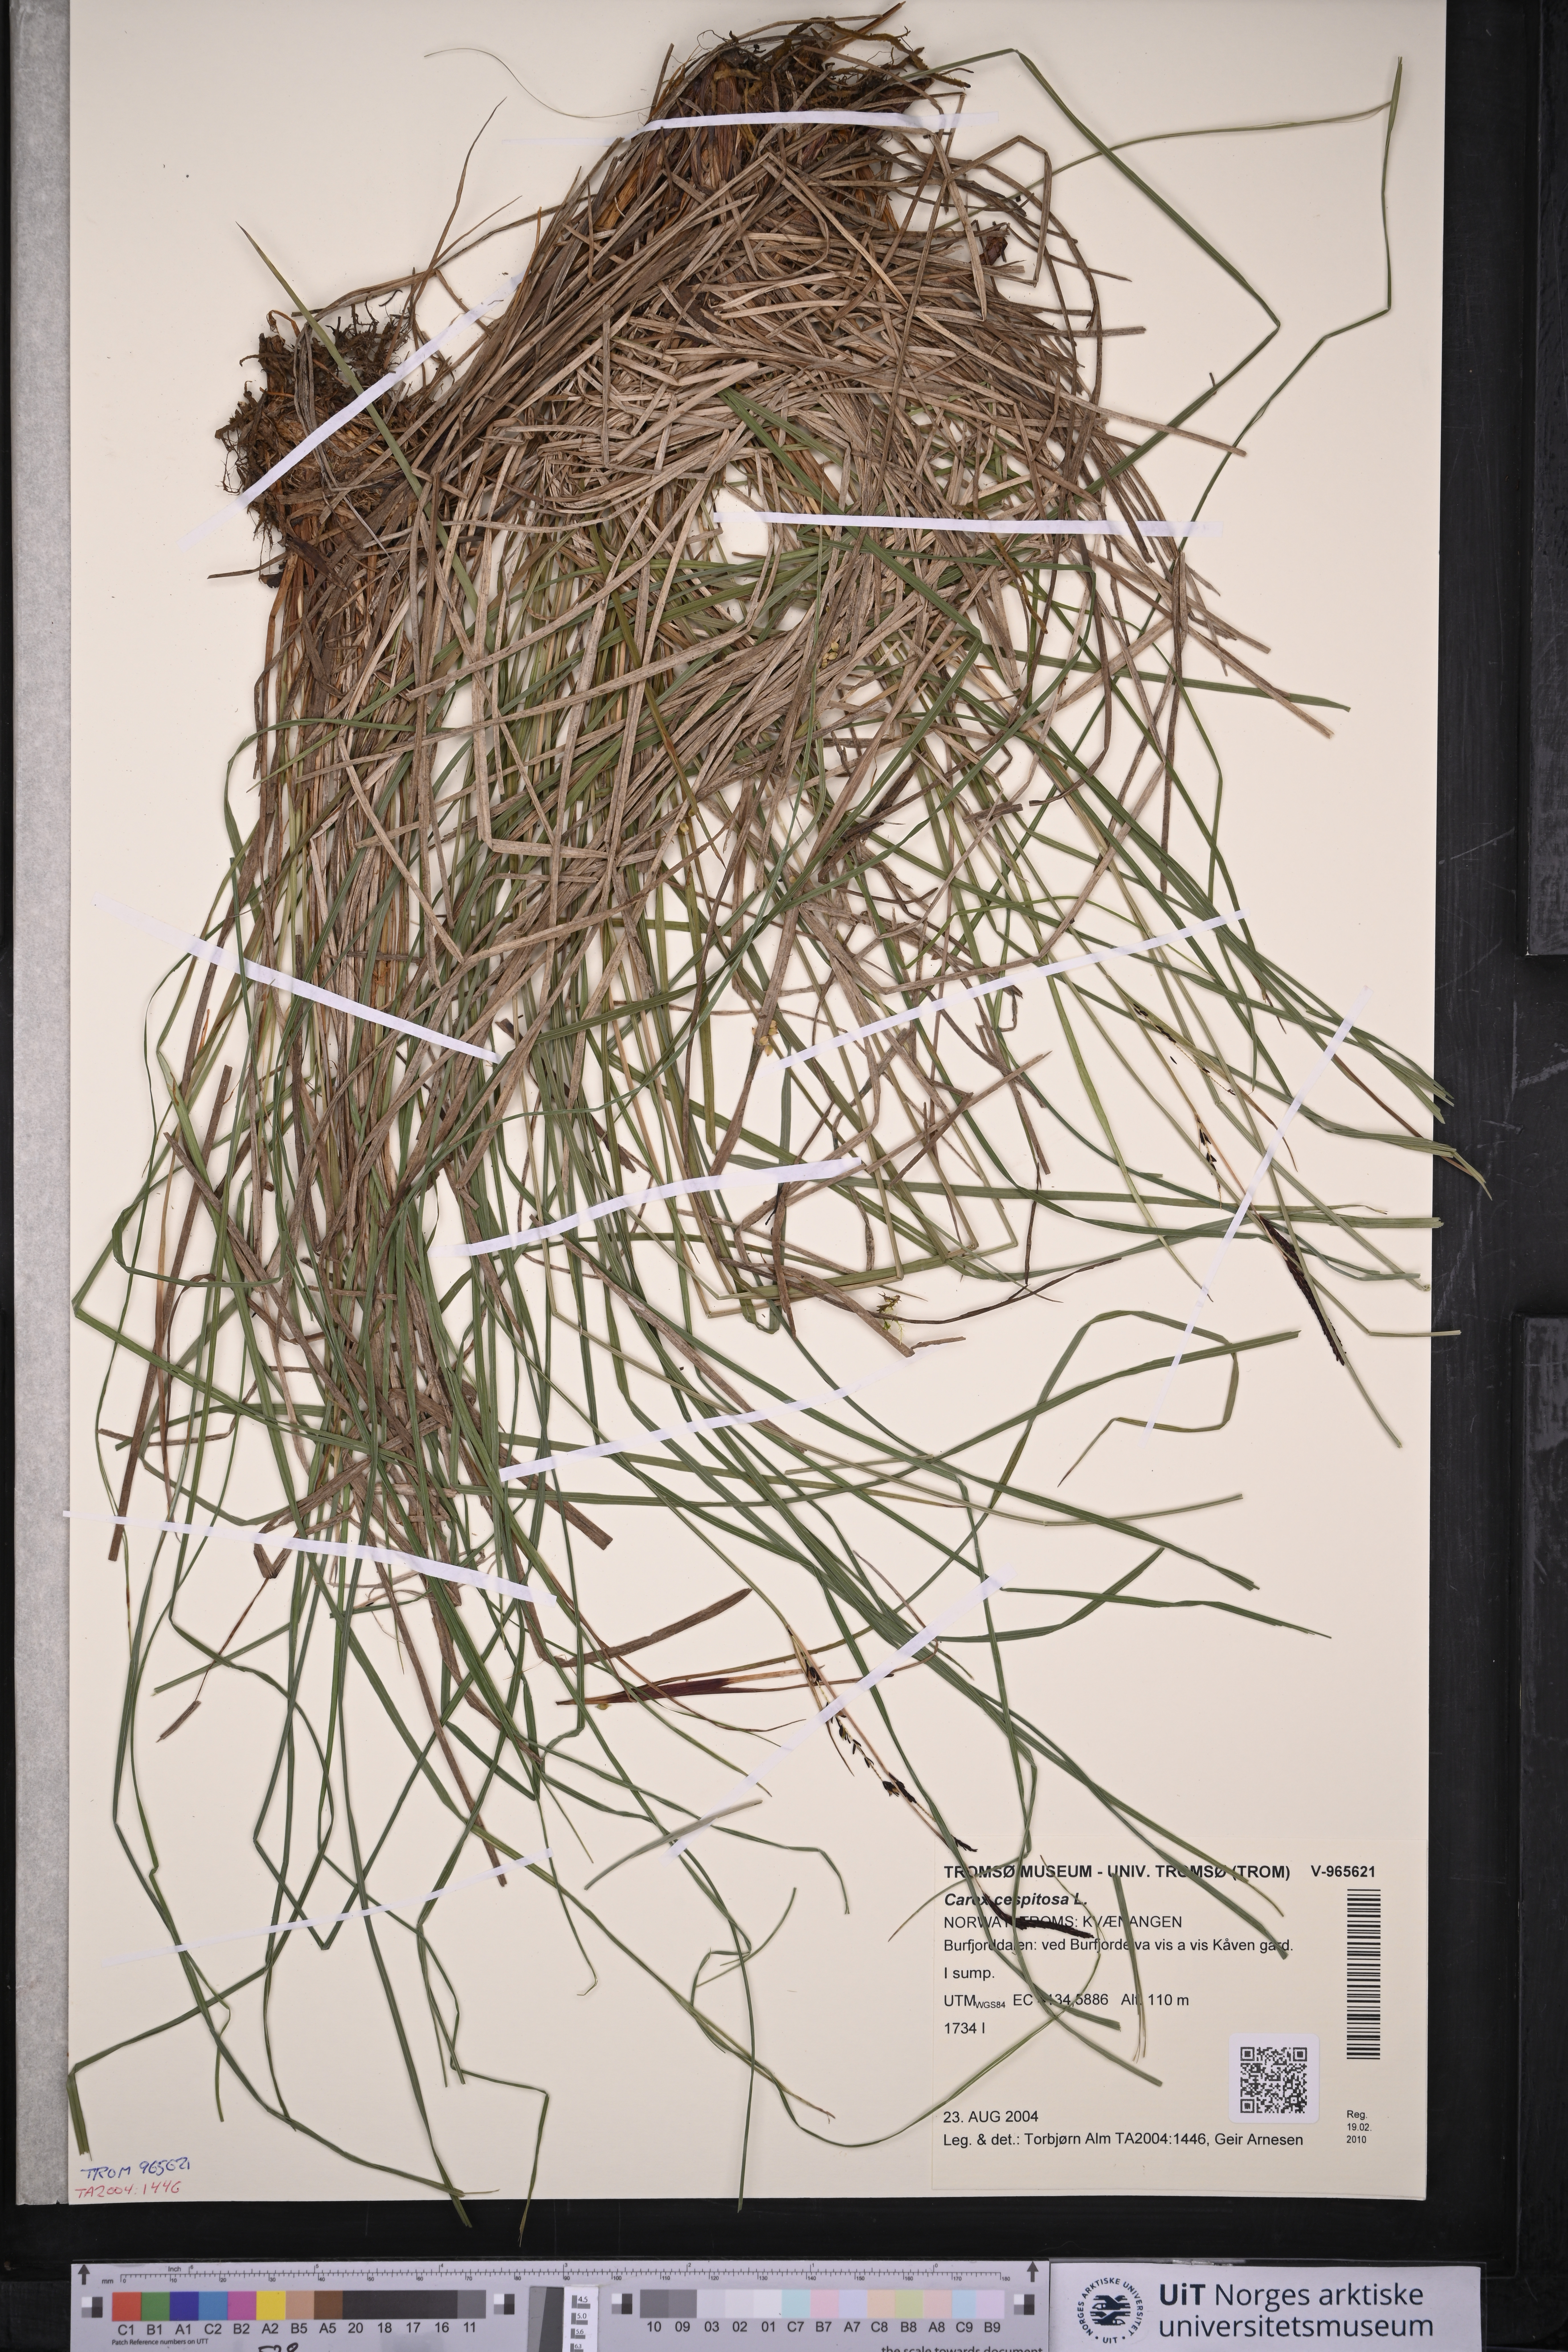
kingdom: Plantae
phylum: Tracheophyta
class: Liliopsida
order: Poales
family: Cyperaceae
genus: Carex
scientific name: Carex cespitosa
